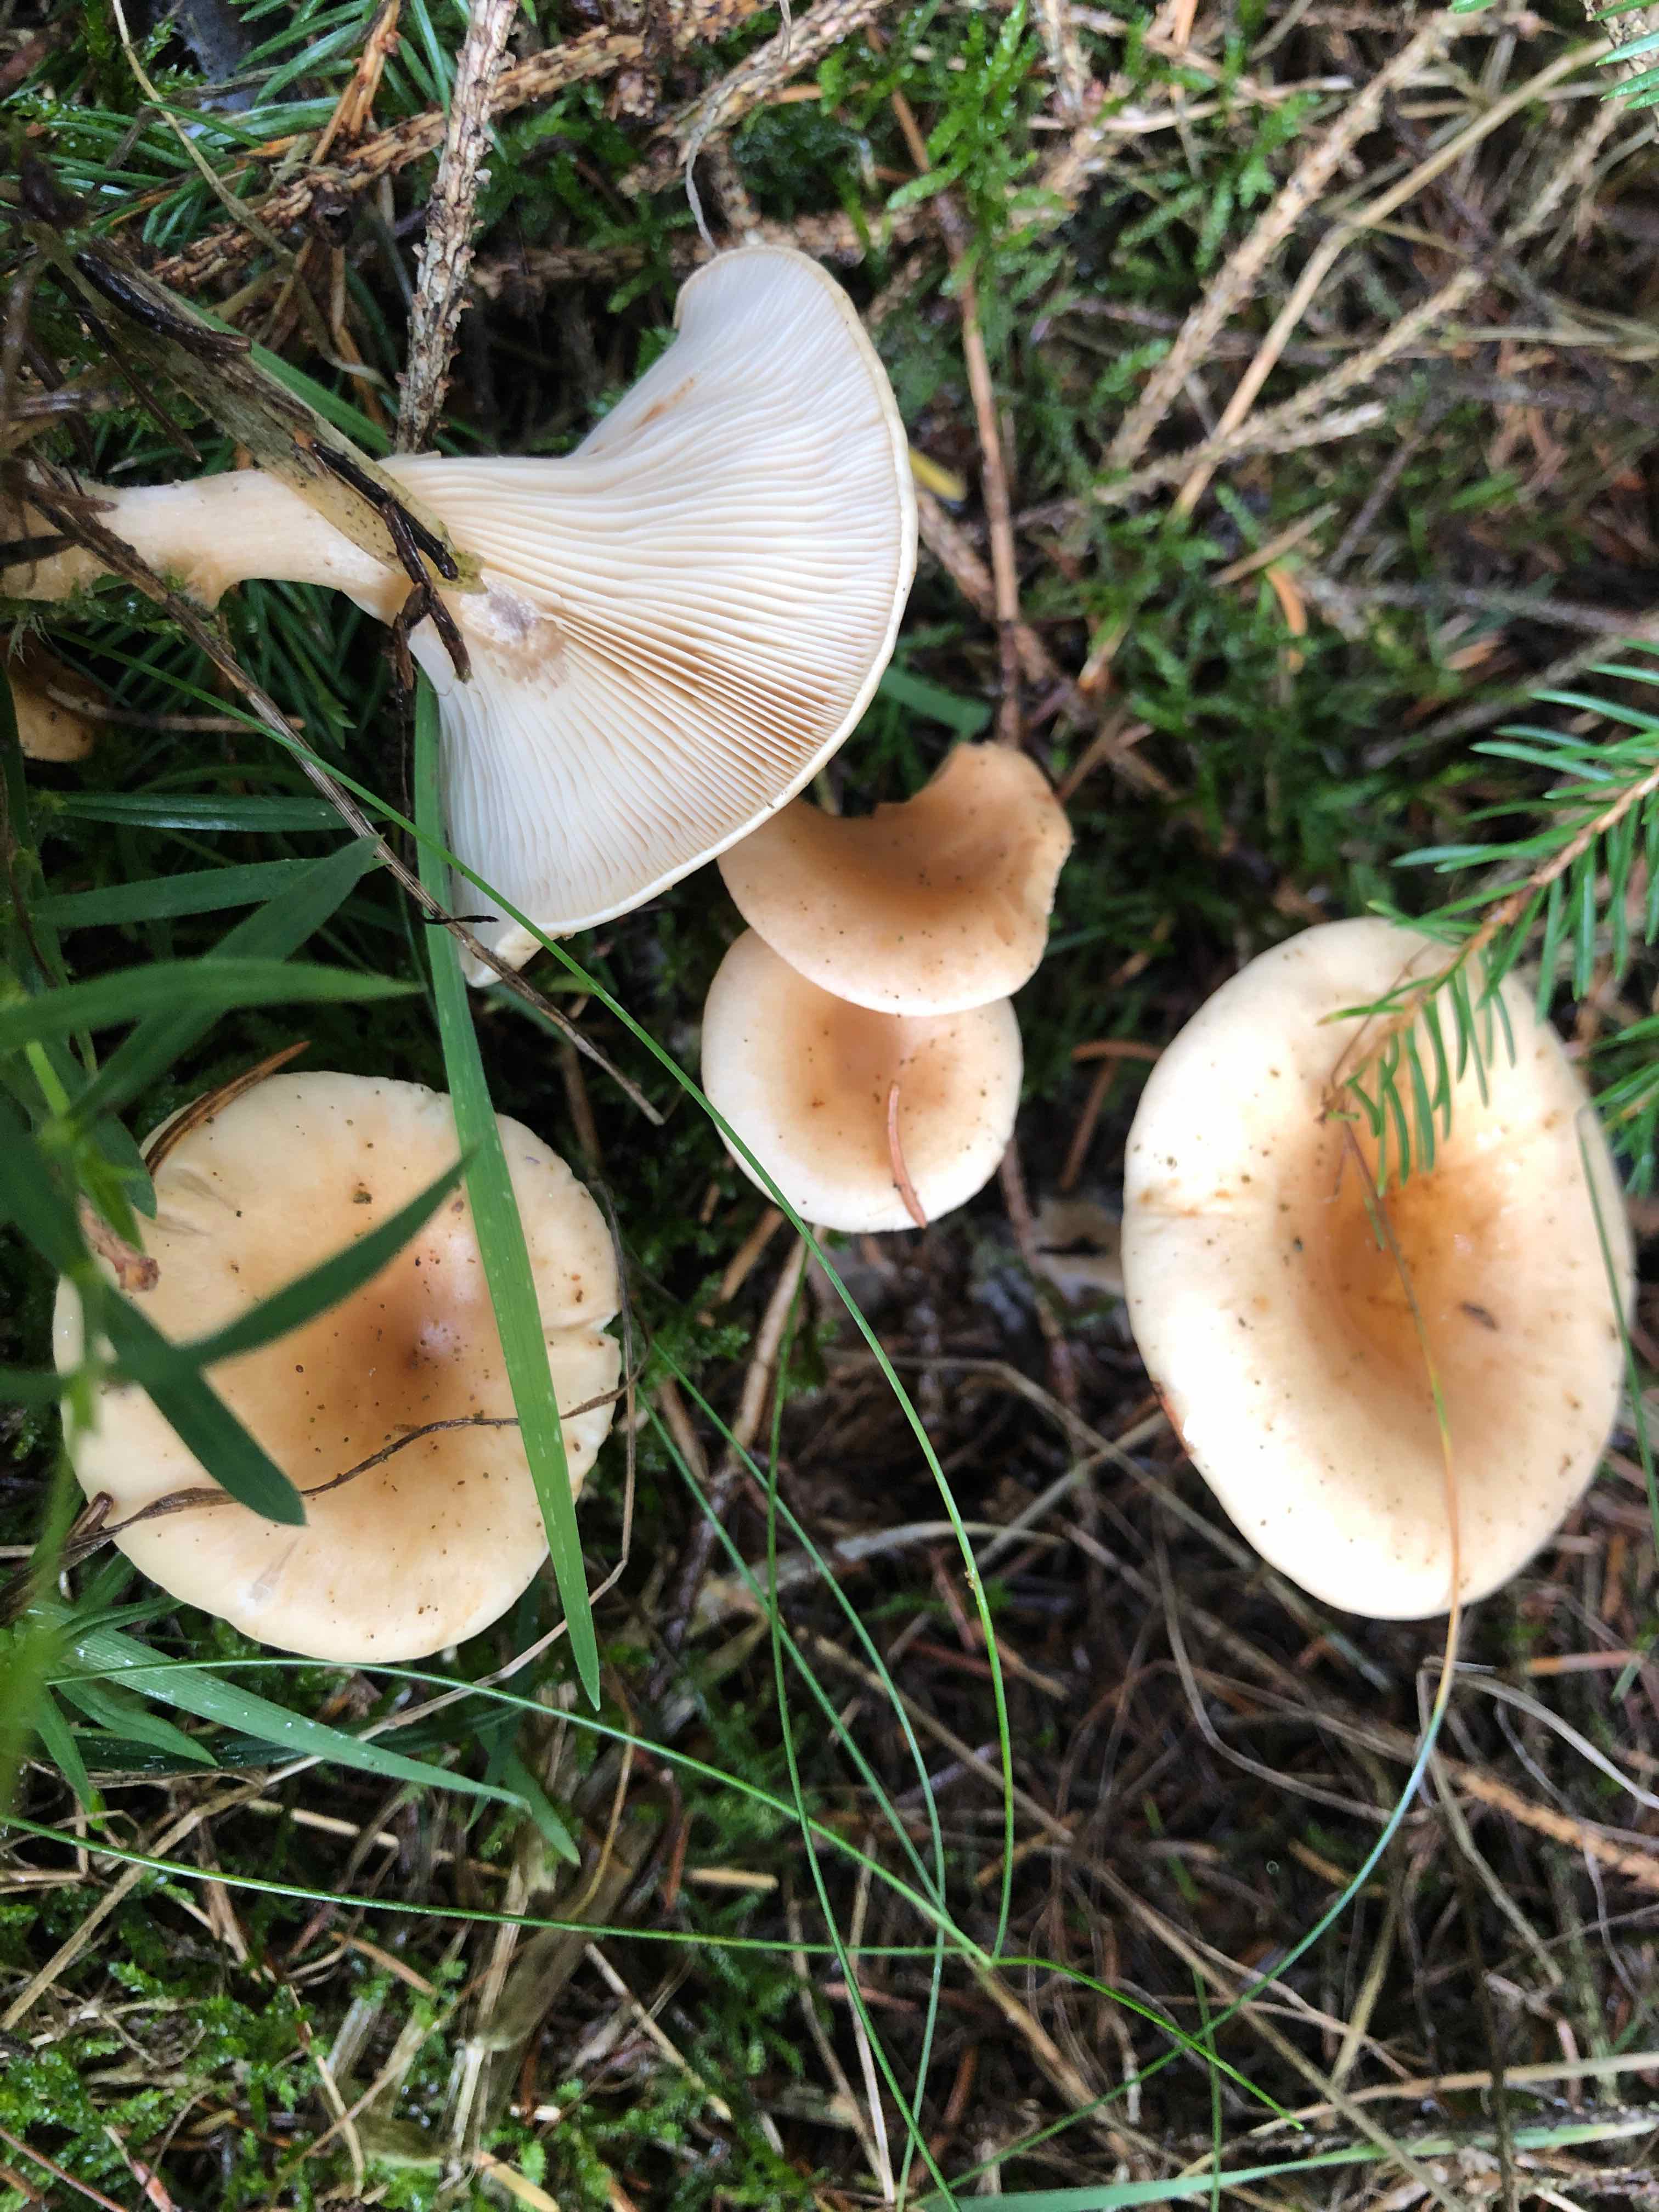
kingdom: Fungi
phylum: Basidiomycota
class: Agaricomycetes
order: Agaricales
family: Tricholomataceae
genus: Paralepista
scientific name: Paralepista flaccida
